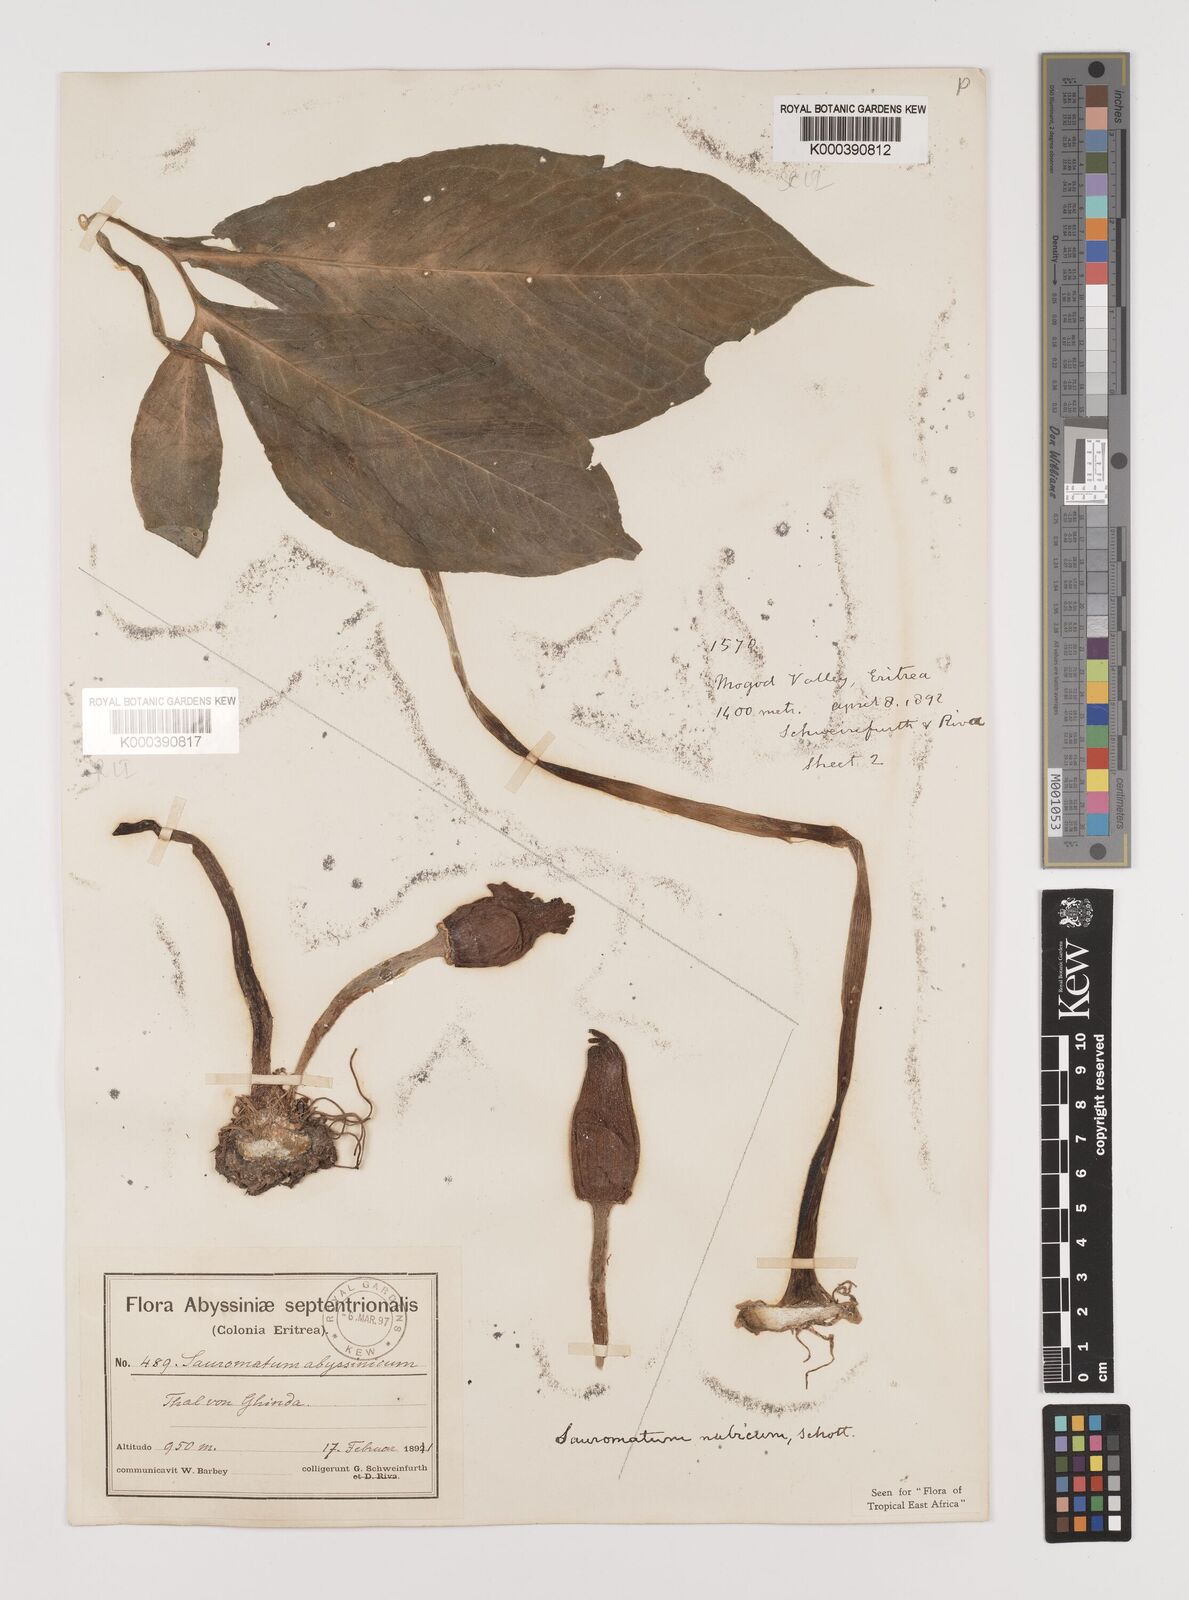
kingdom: Plantae
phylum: Tracheophyta
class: Liliopsida
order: Alismatales
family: Araceae
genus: Sauromatum
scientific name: Sauromatum venosum
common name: Voodoo lily
